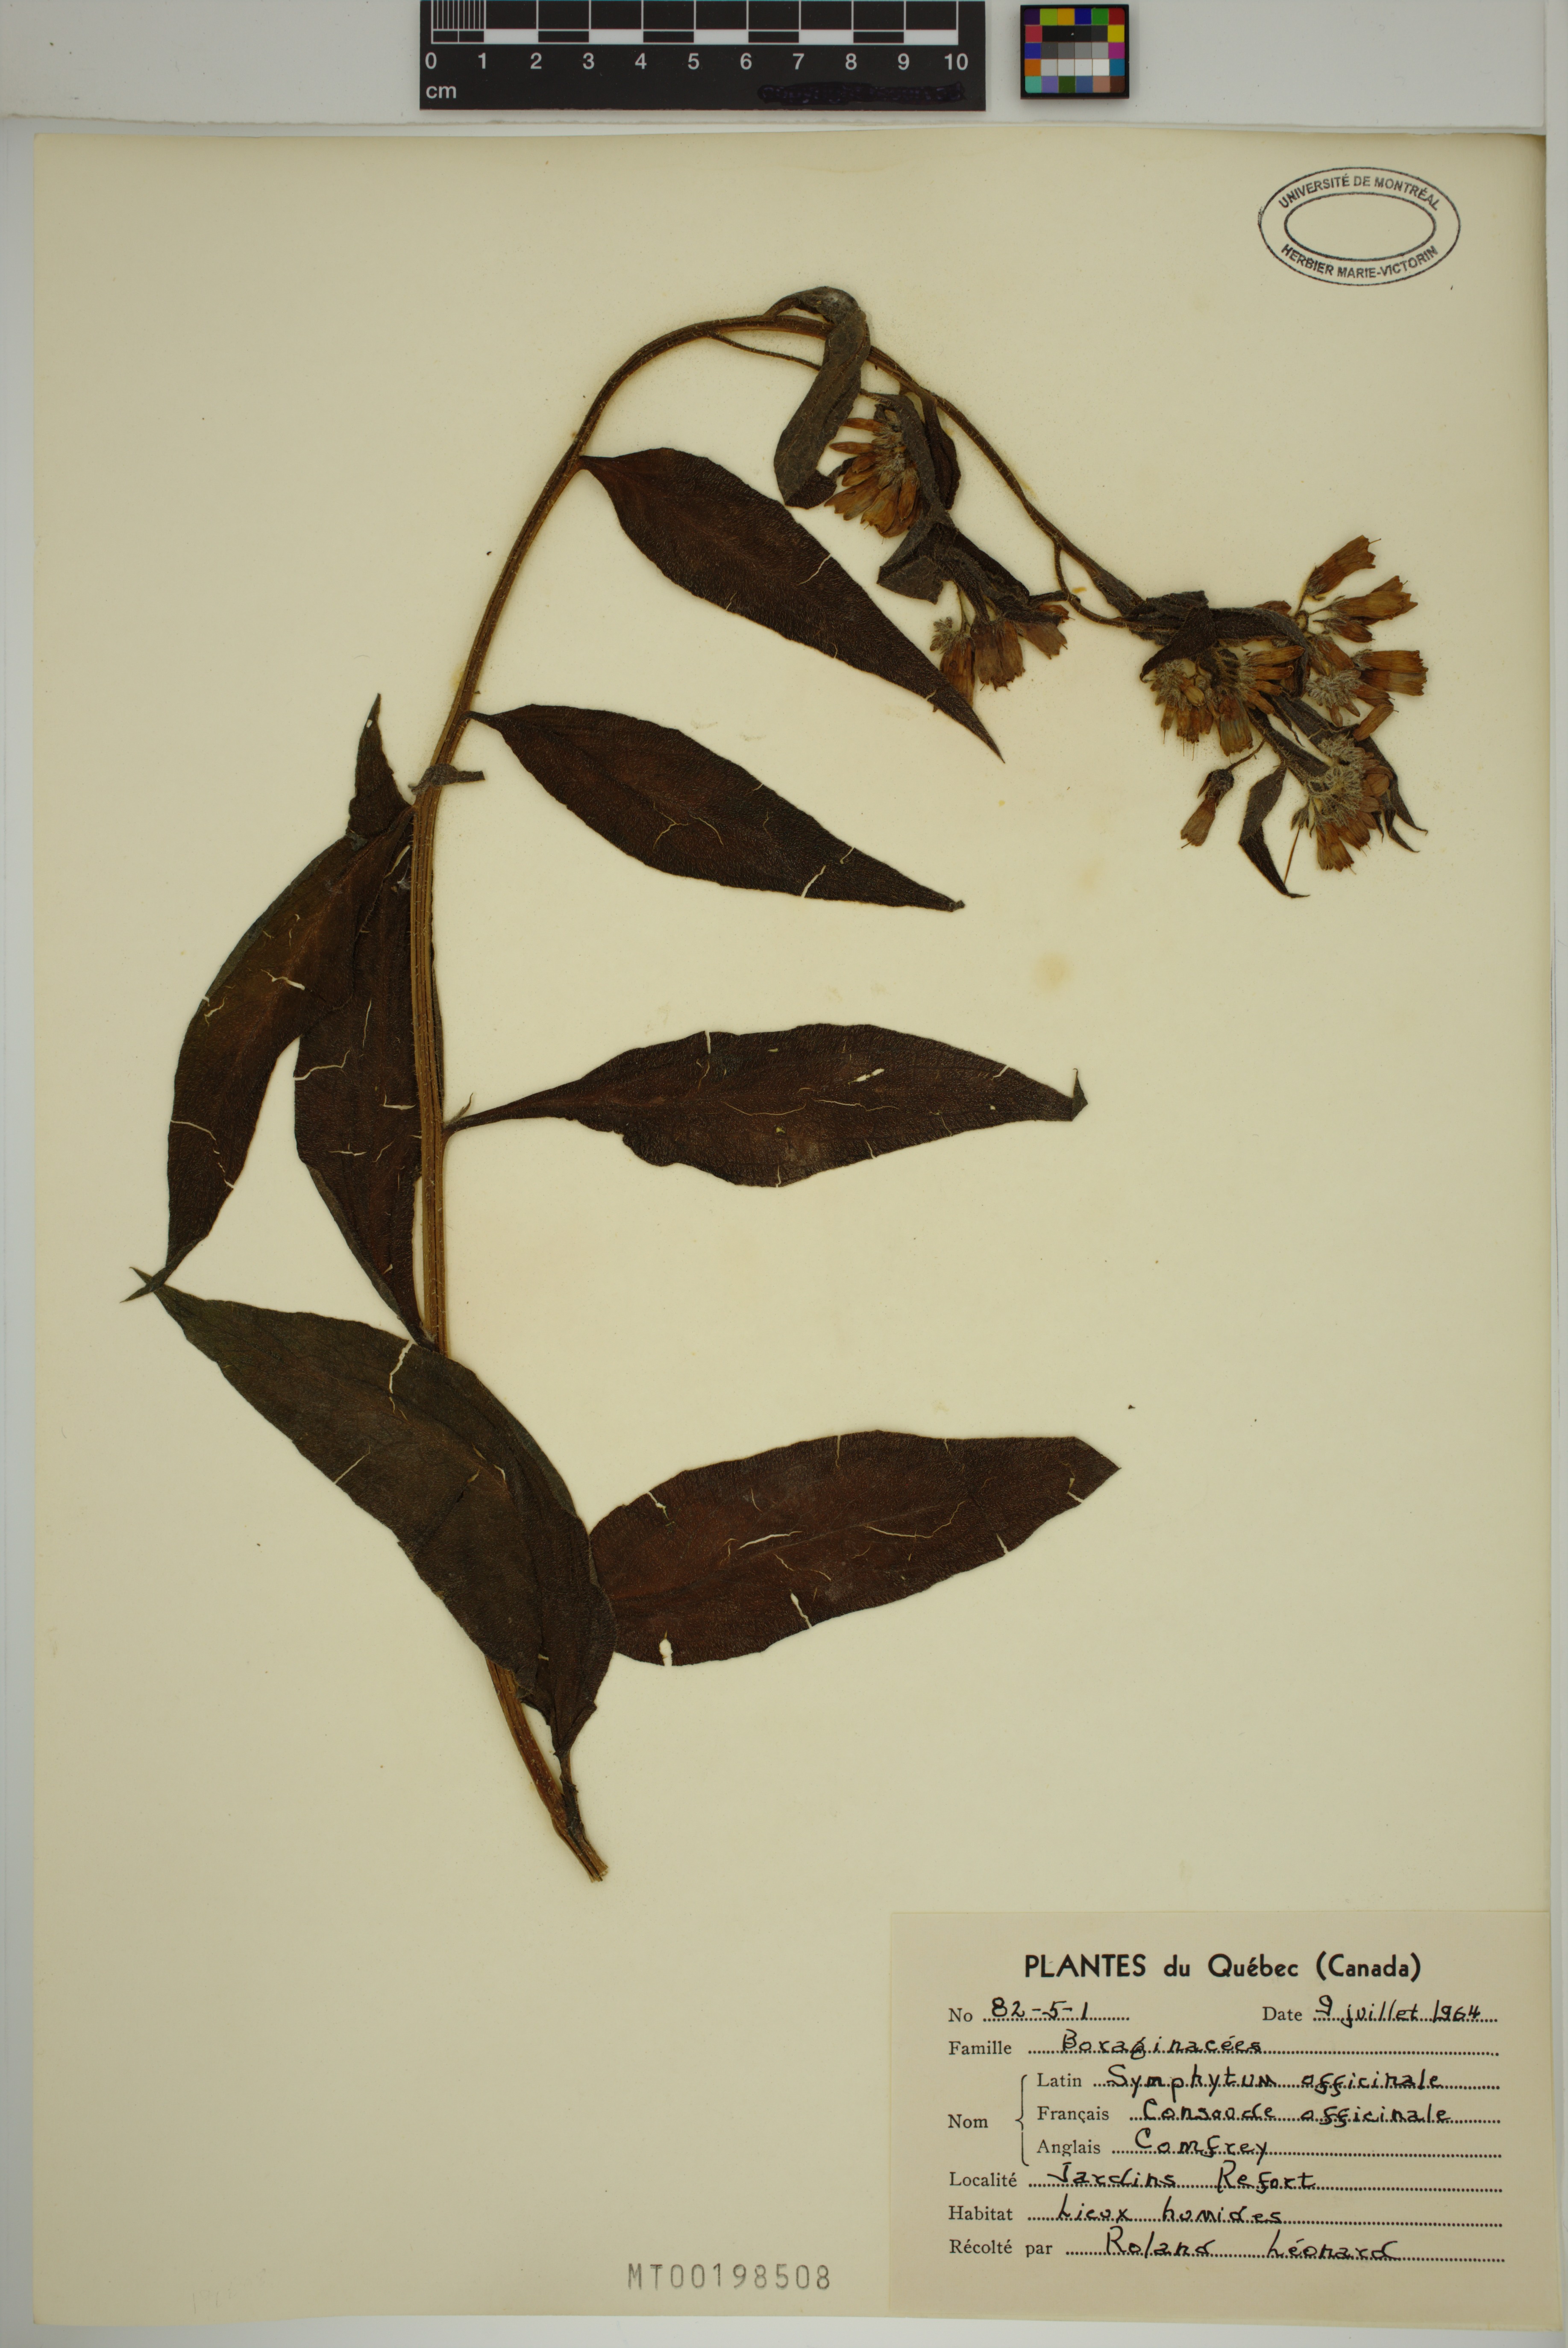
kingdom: Plantae
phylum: Tracheophyta
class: Magnoliopsida
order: Boraginales
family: Boraginaceae
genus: Symphytum
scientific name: Symphytum officinale
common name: Common comfrey
